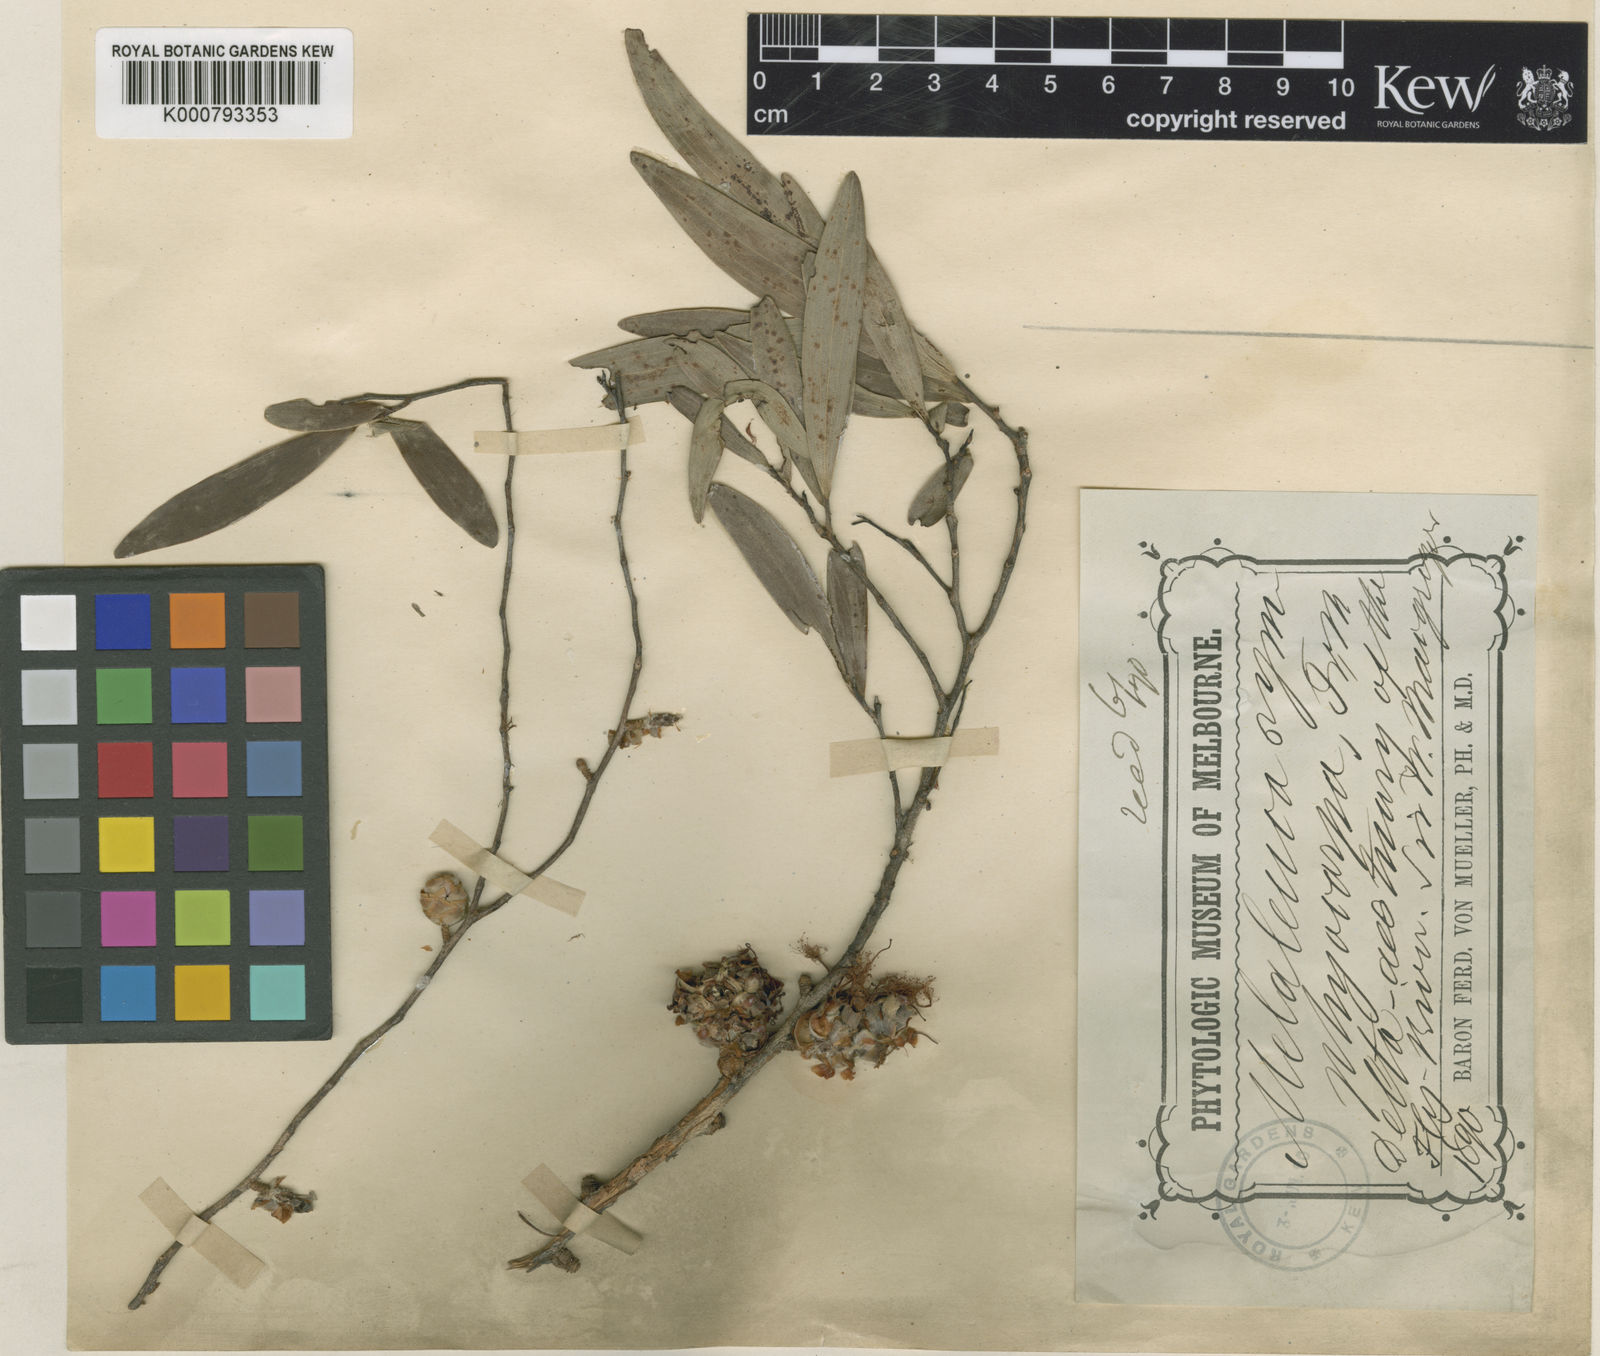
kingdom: Plantae
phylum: Tracheophyta
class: Magnoliopsida
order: Myrtales
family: Myrtaceae
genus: Asteromyrtus
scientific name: Asteromyrtus symphyocarpa
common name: Liniment-tree
